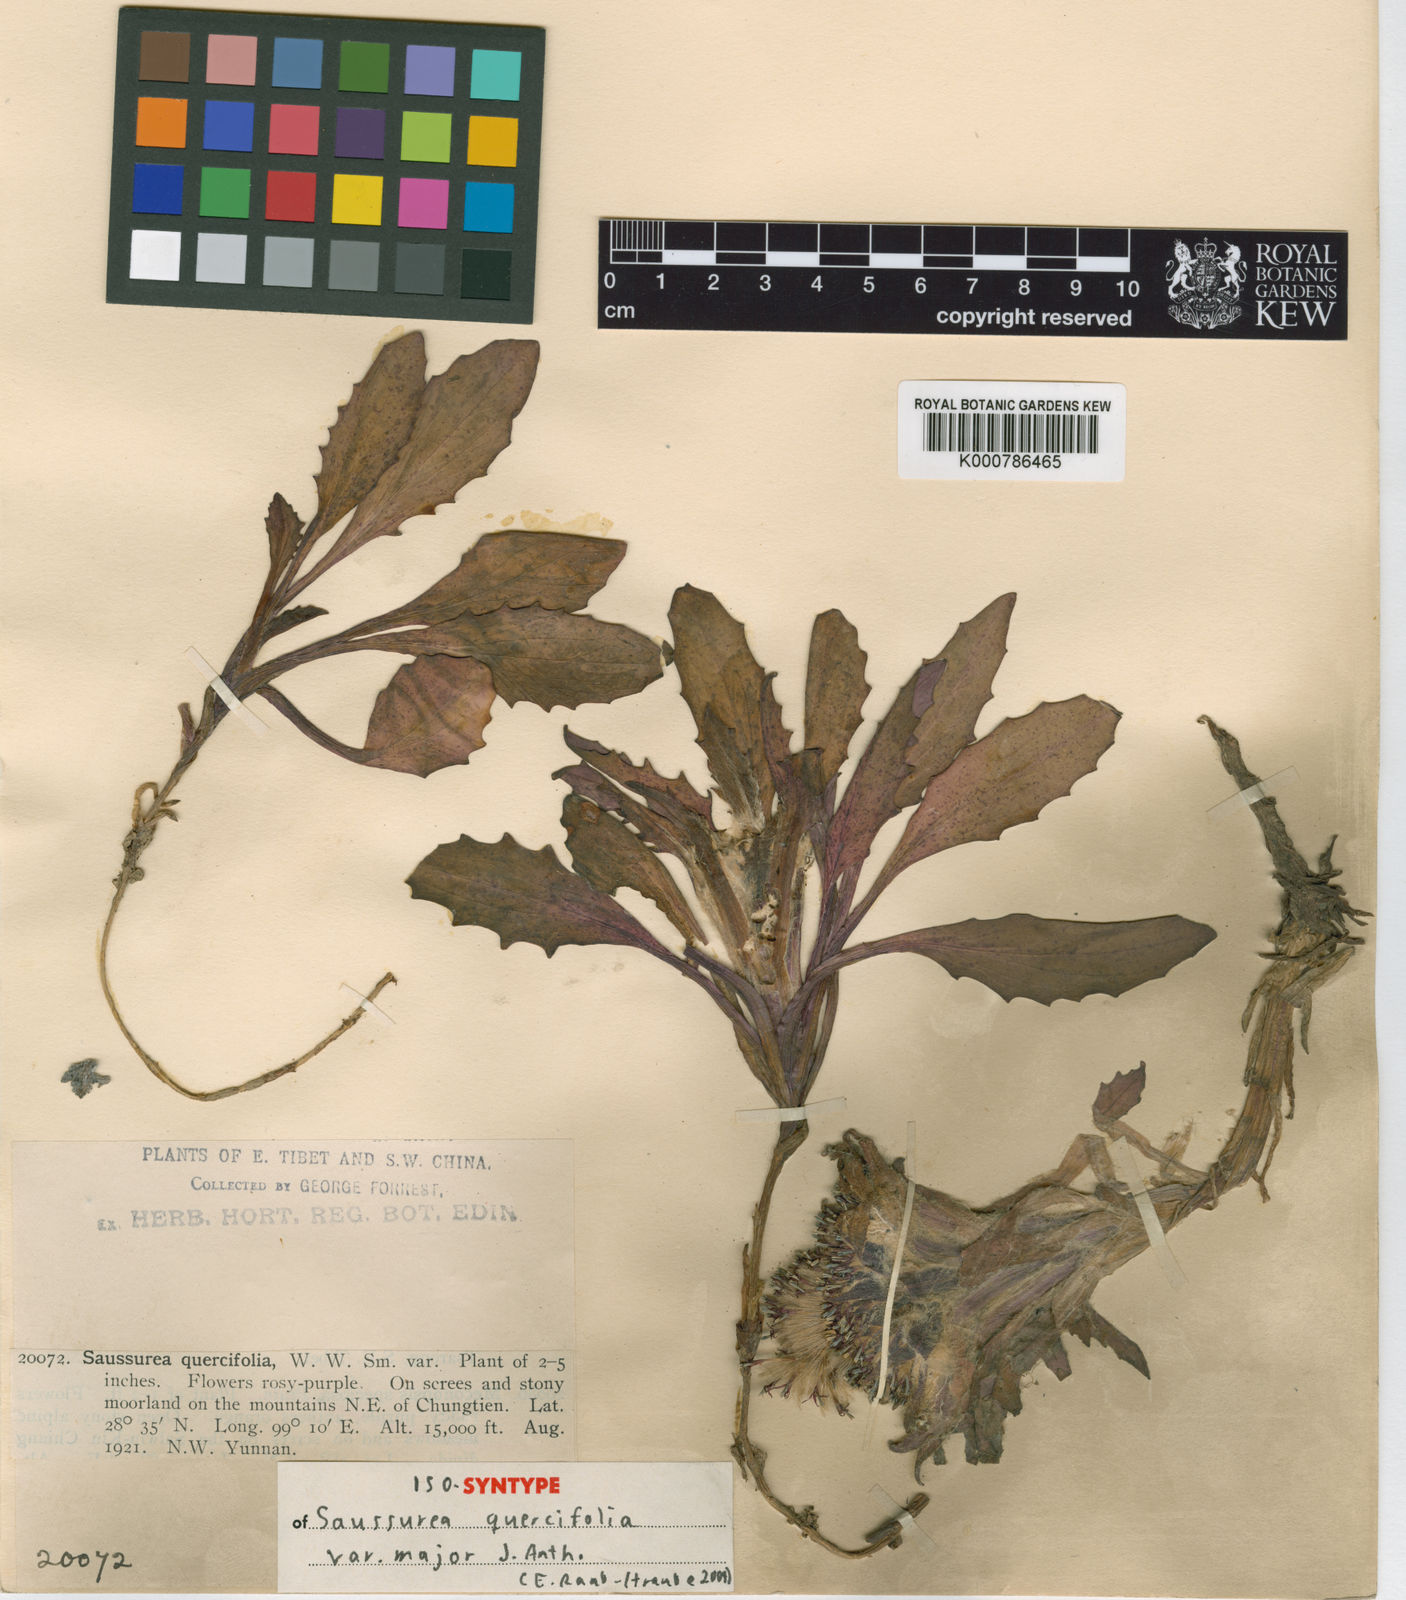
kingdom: Plantae
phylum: Tracheophyta
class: Magnoliopsida
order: Asterales
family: Asteraceae
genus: Saussurea
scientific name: Saussurea quercifolia
